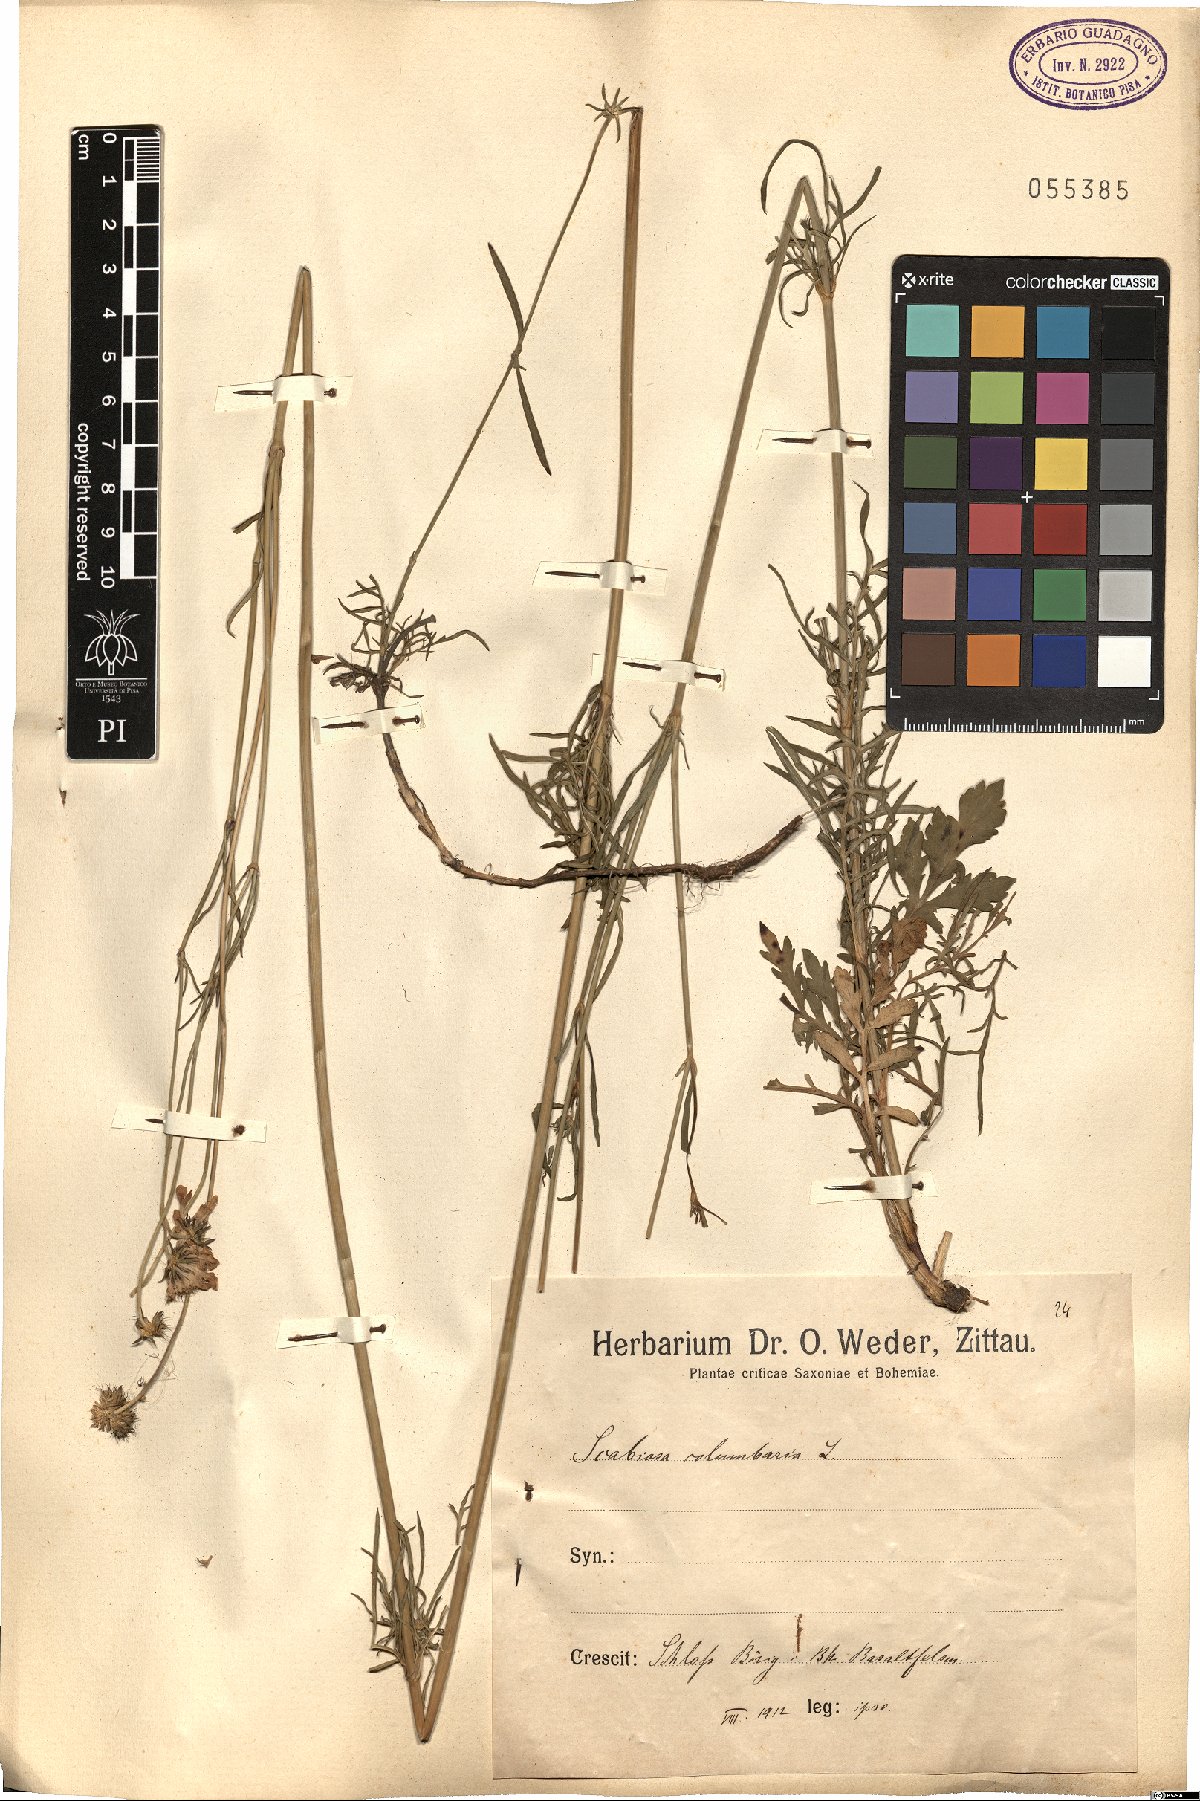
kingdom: Plantae
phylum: Tracheophyta
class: Magnoliopsida
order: Dipsacales
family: Caprifoliaceae
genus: Scabiosa
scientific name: Scabiosa columbaria
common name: Small scabious
